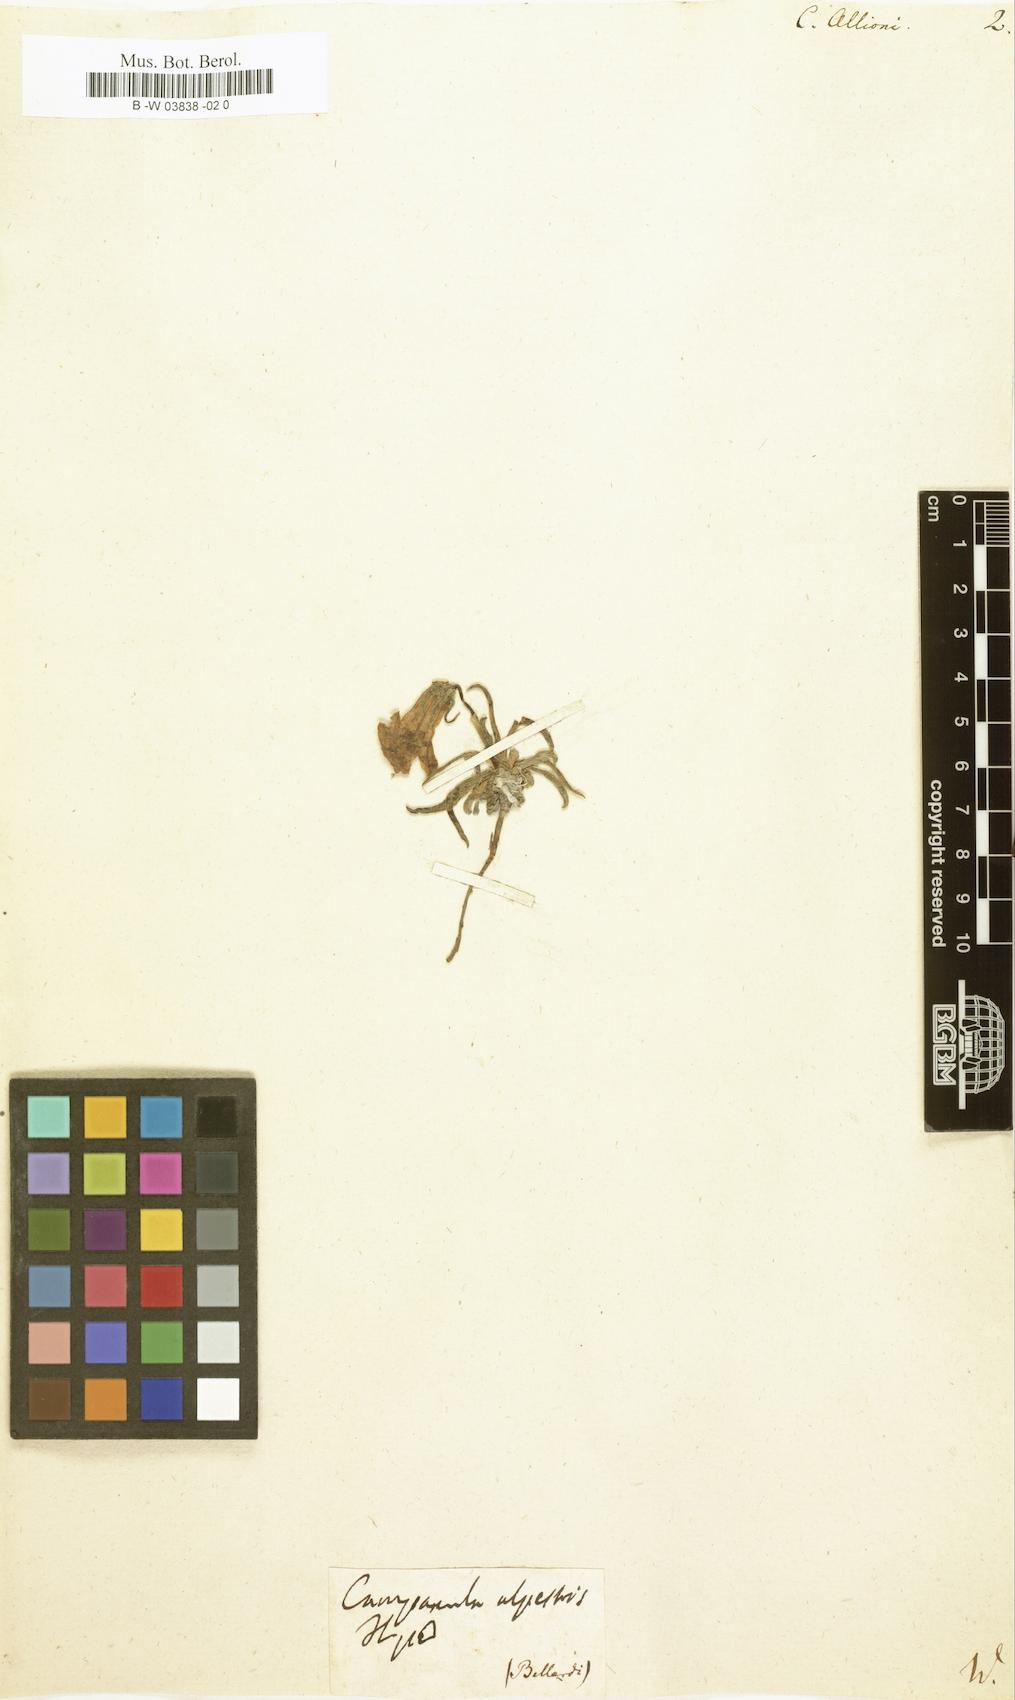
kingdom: Plantae
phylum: Tracheophyta
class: Magnoliopsida
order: Asterales
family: Campanulaceae
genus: Campanula
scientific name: Campanula
